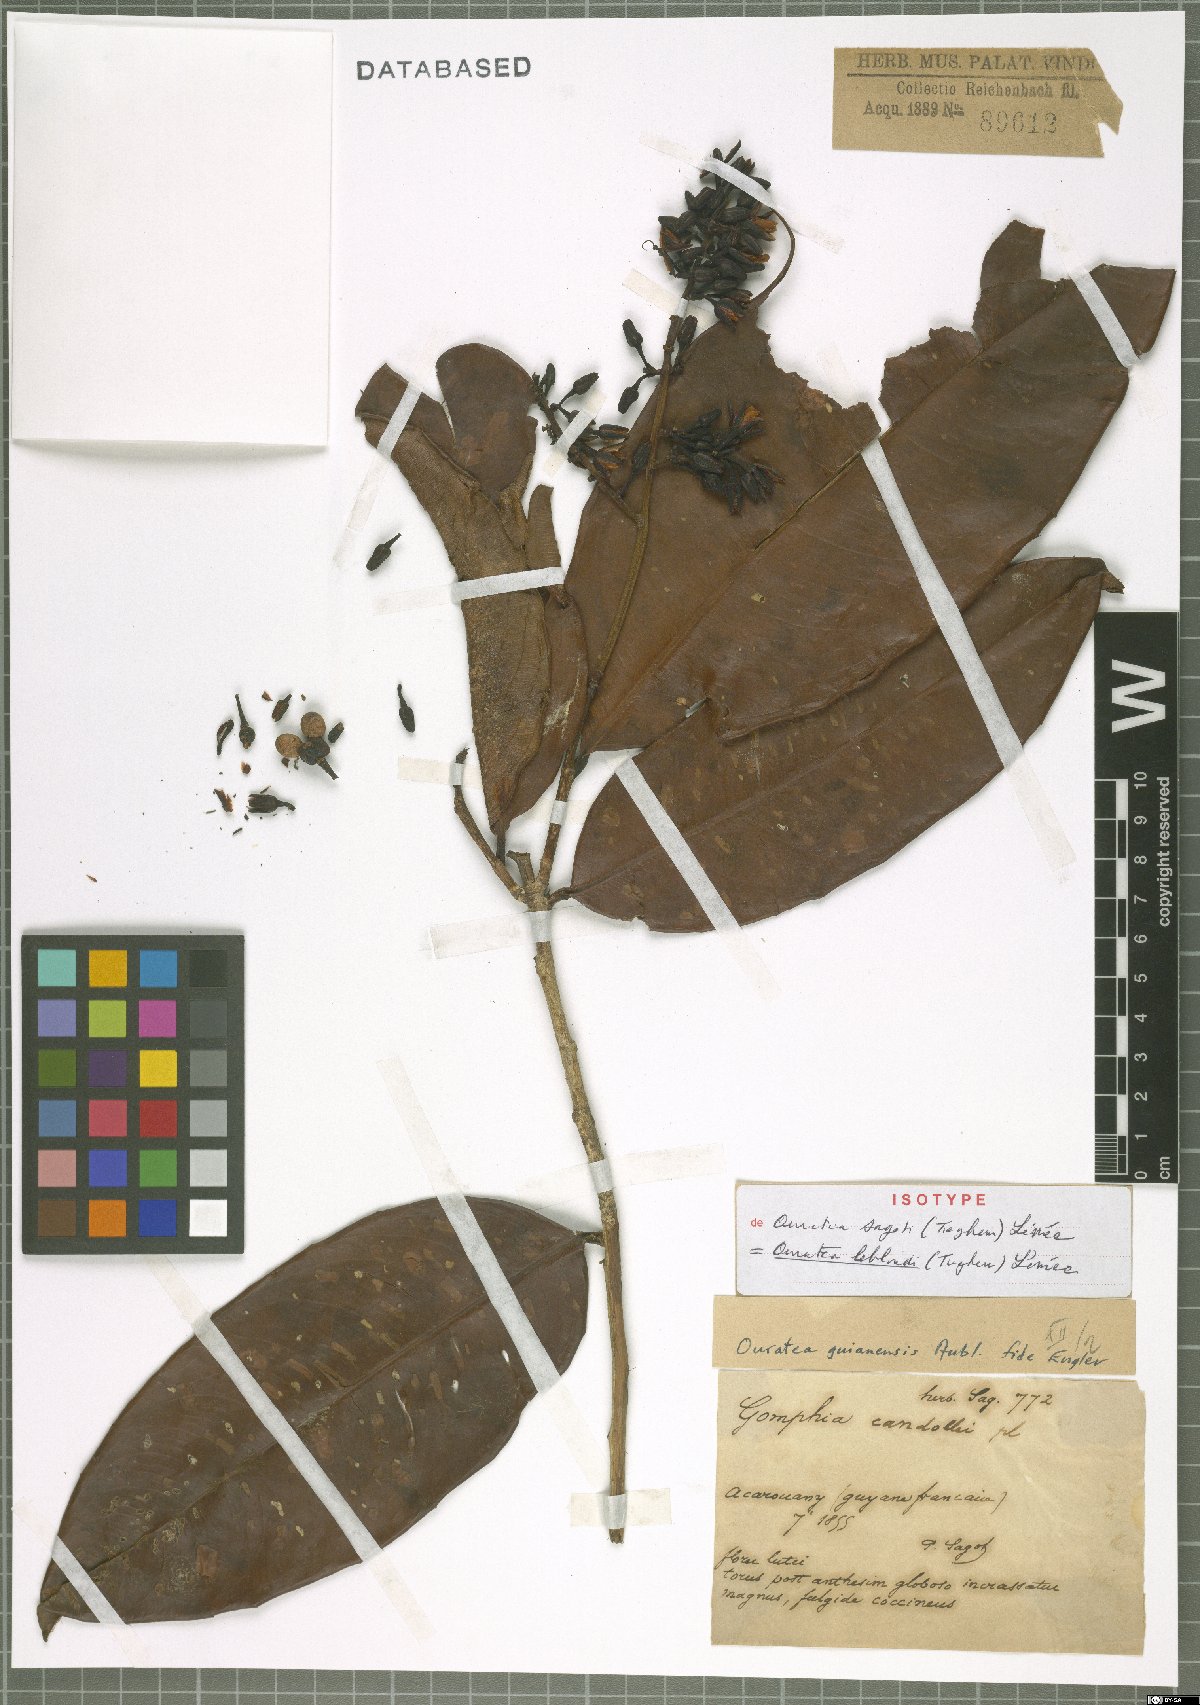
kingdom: Plantae
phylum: Tracheophyta
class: Magnoliopsida
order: Malpighiales
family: Ochnaceae
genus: Ouratea
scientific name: Ouratea leblondii
